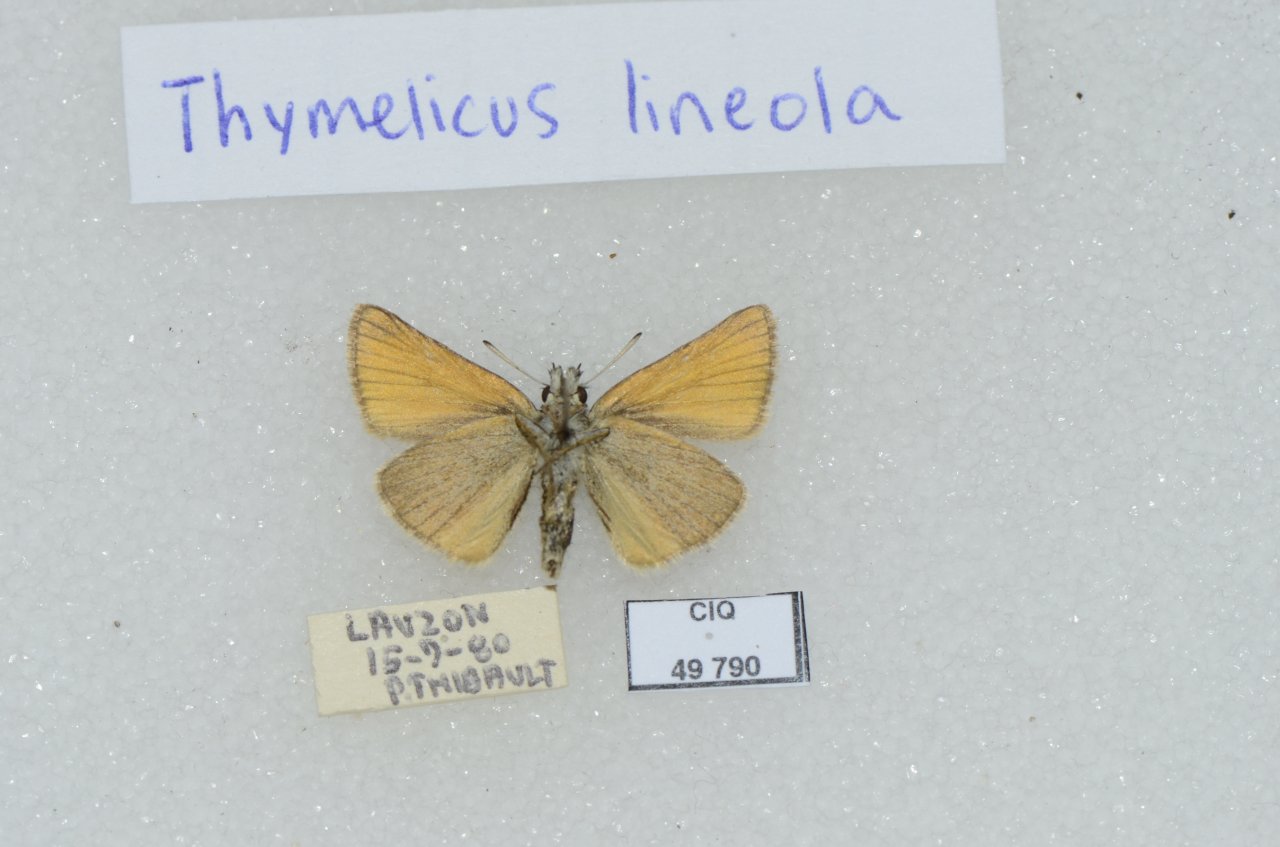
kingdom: Animalia
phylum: Arthropoda
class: Insecta
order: Lepidoptera
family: Hesperiidae
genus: Thymelicus
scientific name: Thymelicus lineola
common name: European Skipper
